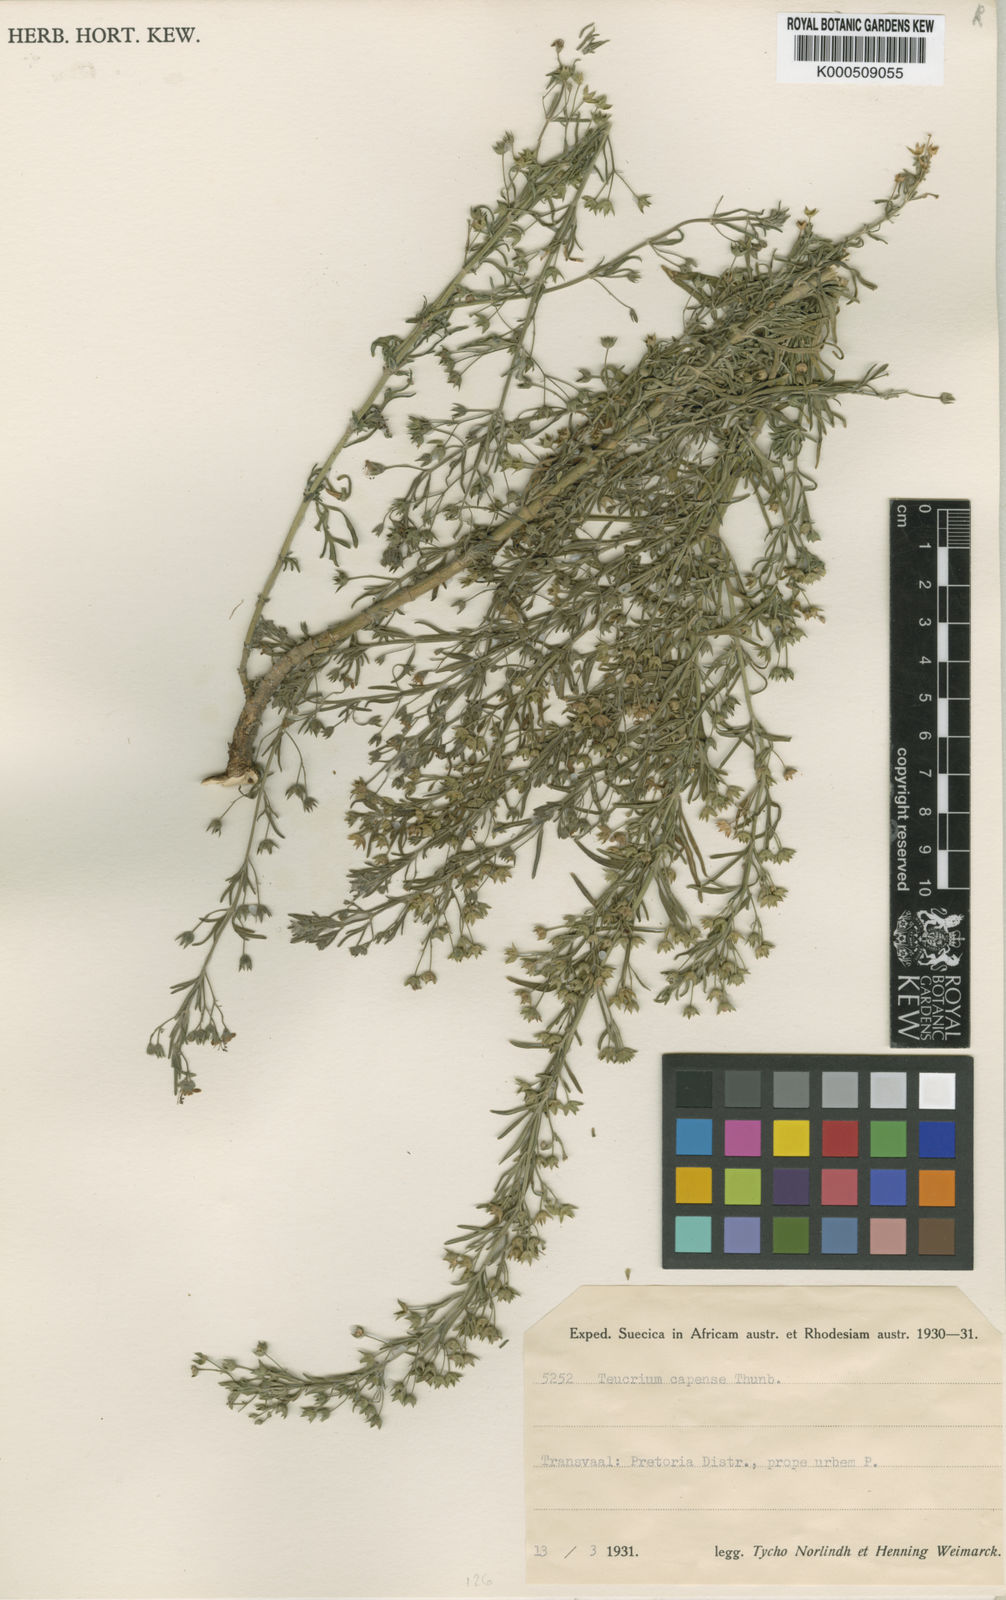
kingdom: Plantae
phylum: Tracheophyta
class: Magnoliopsida
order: Lamiales
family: Lamiaceae
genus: Teucrium
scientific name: Teucrium trifidum
